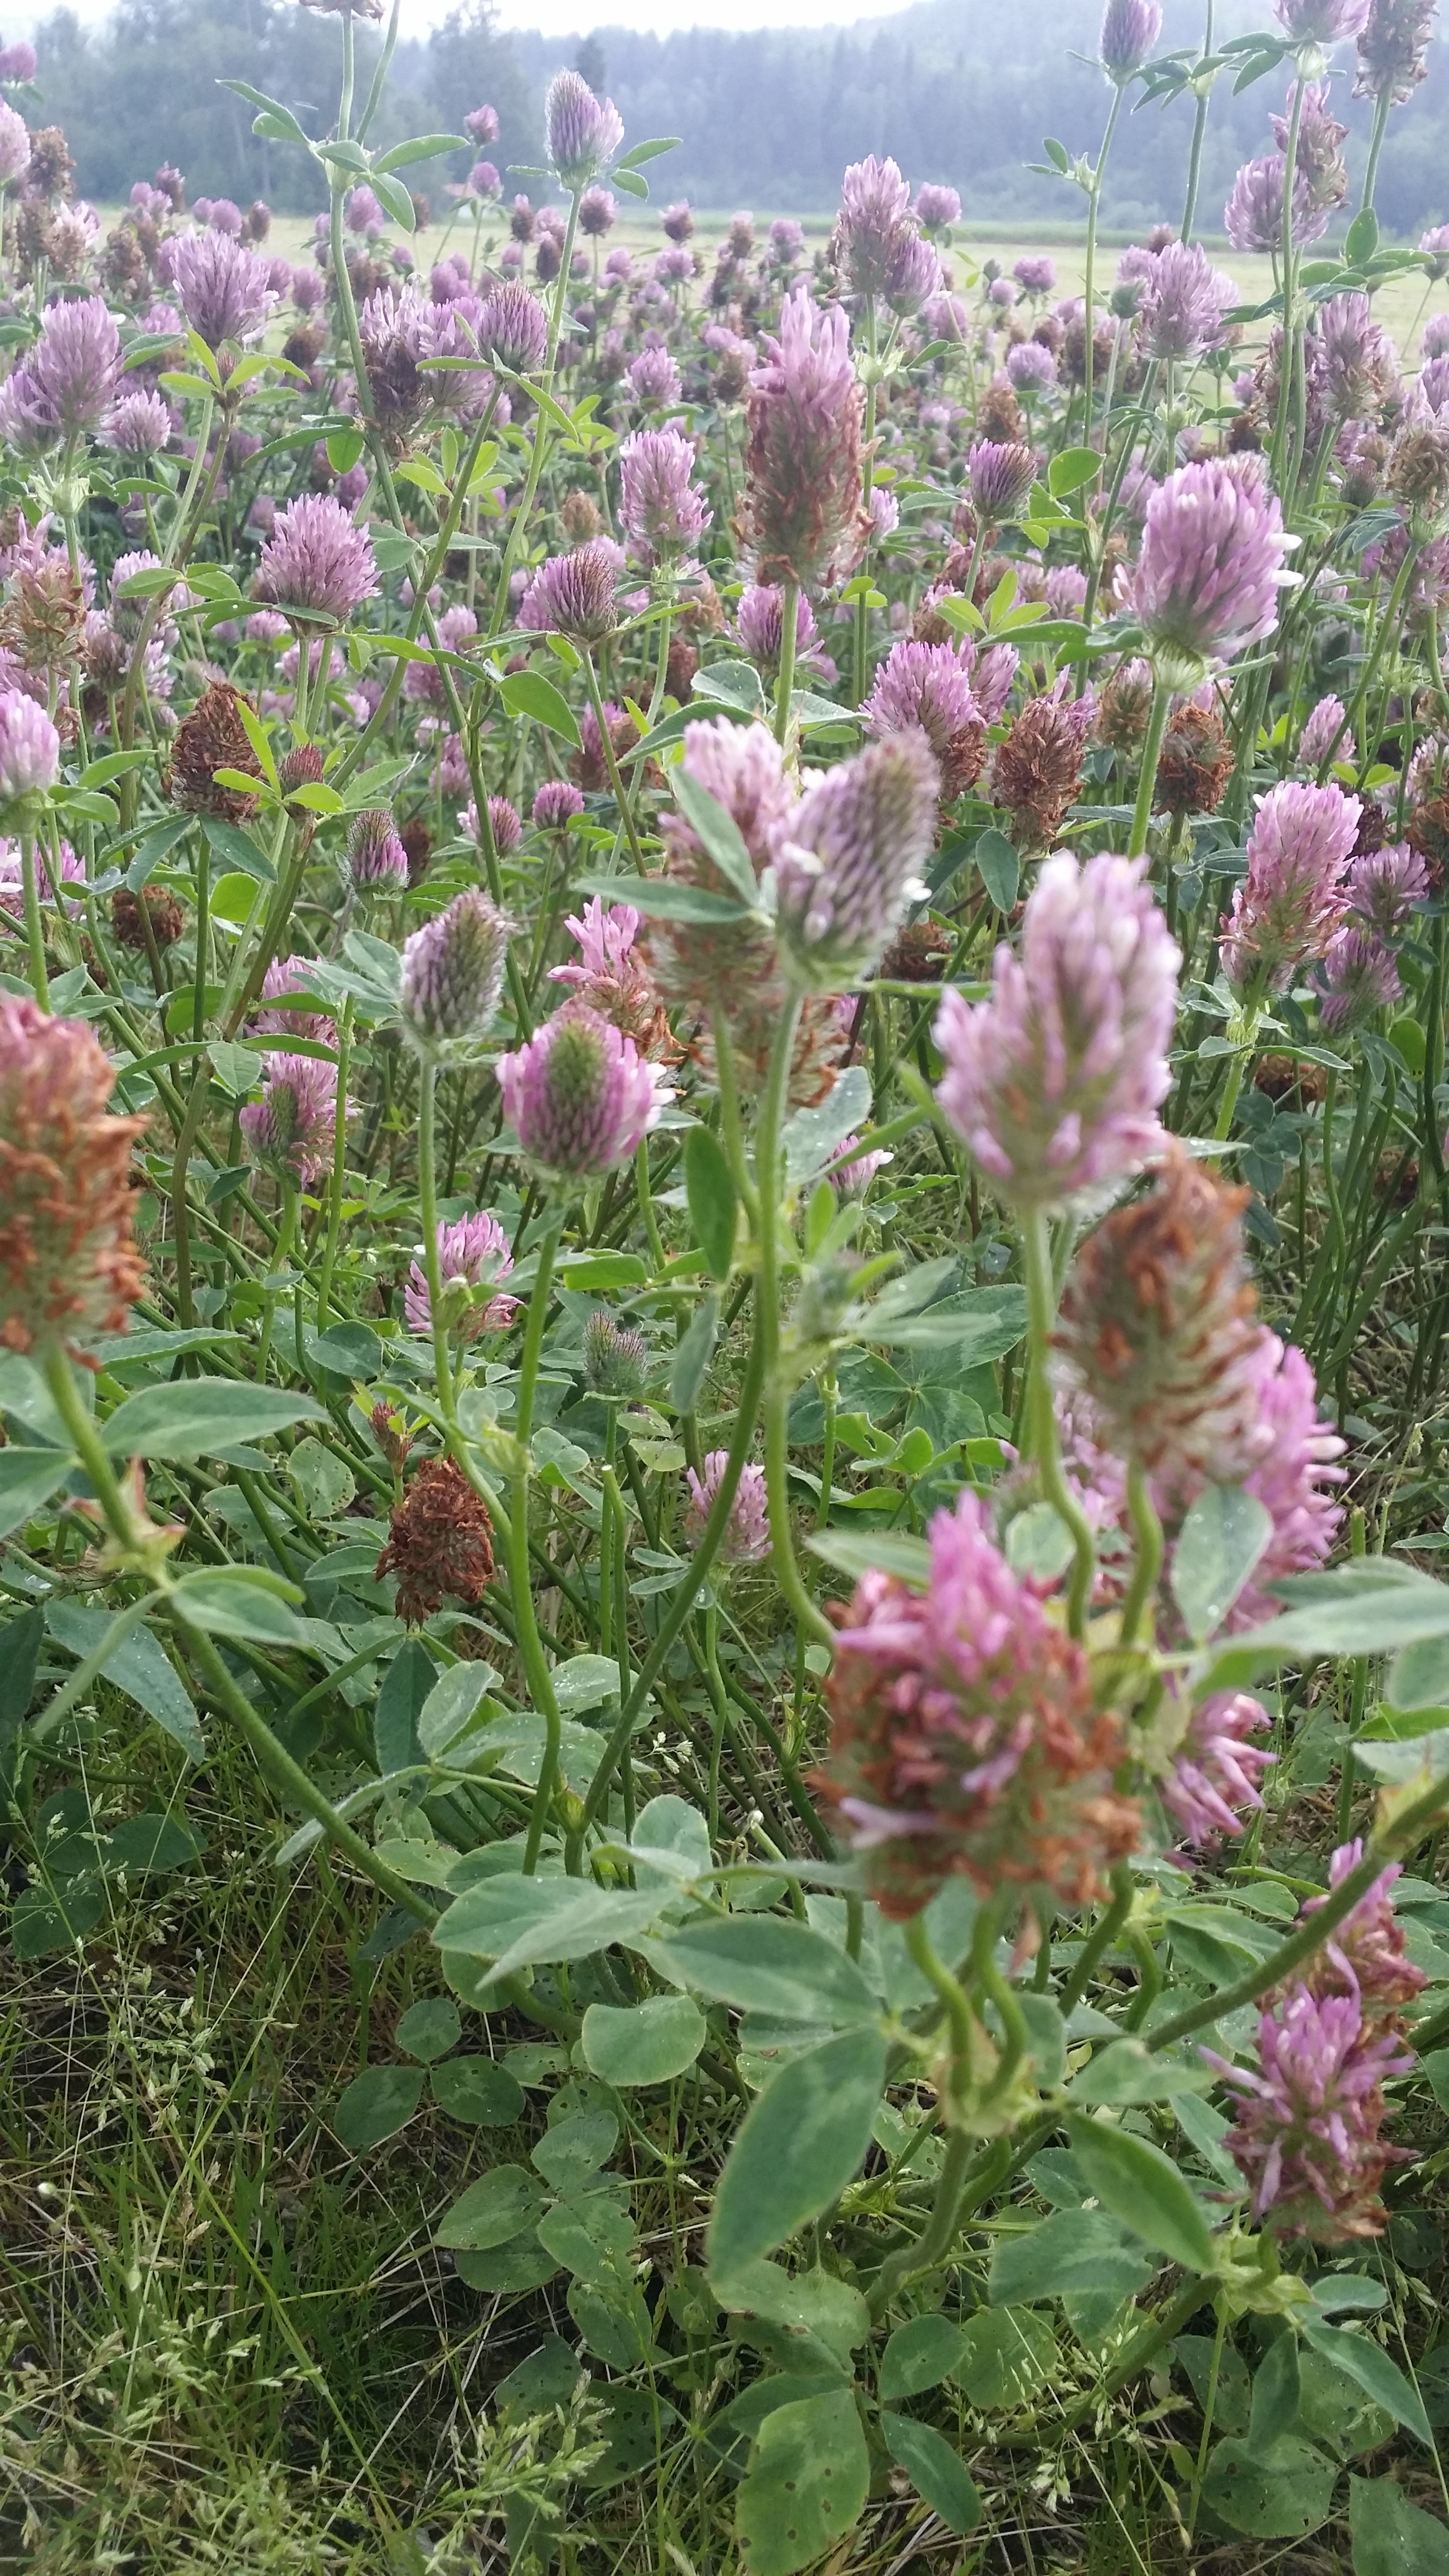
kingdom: Plantae
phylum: Tracheophyta
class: Magnoliopsida
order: Fabales
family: Fabaceae
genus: Trifolium
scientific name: Trifolium pratense
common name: Red clover
